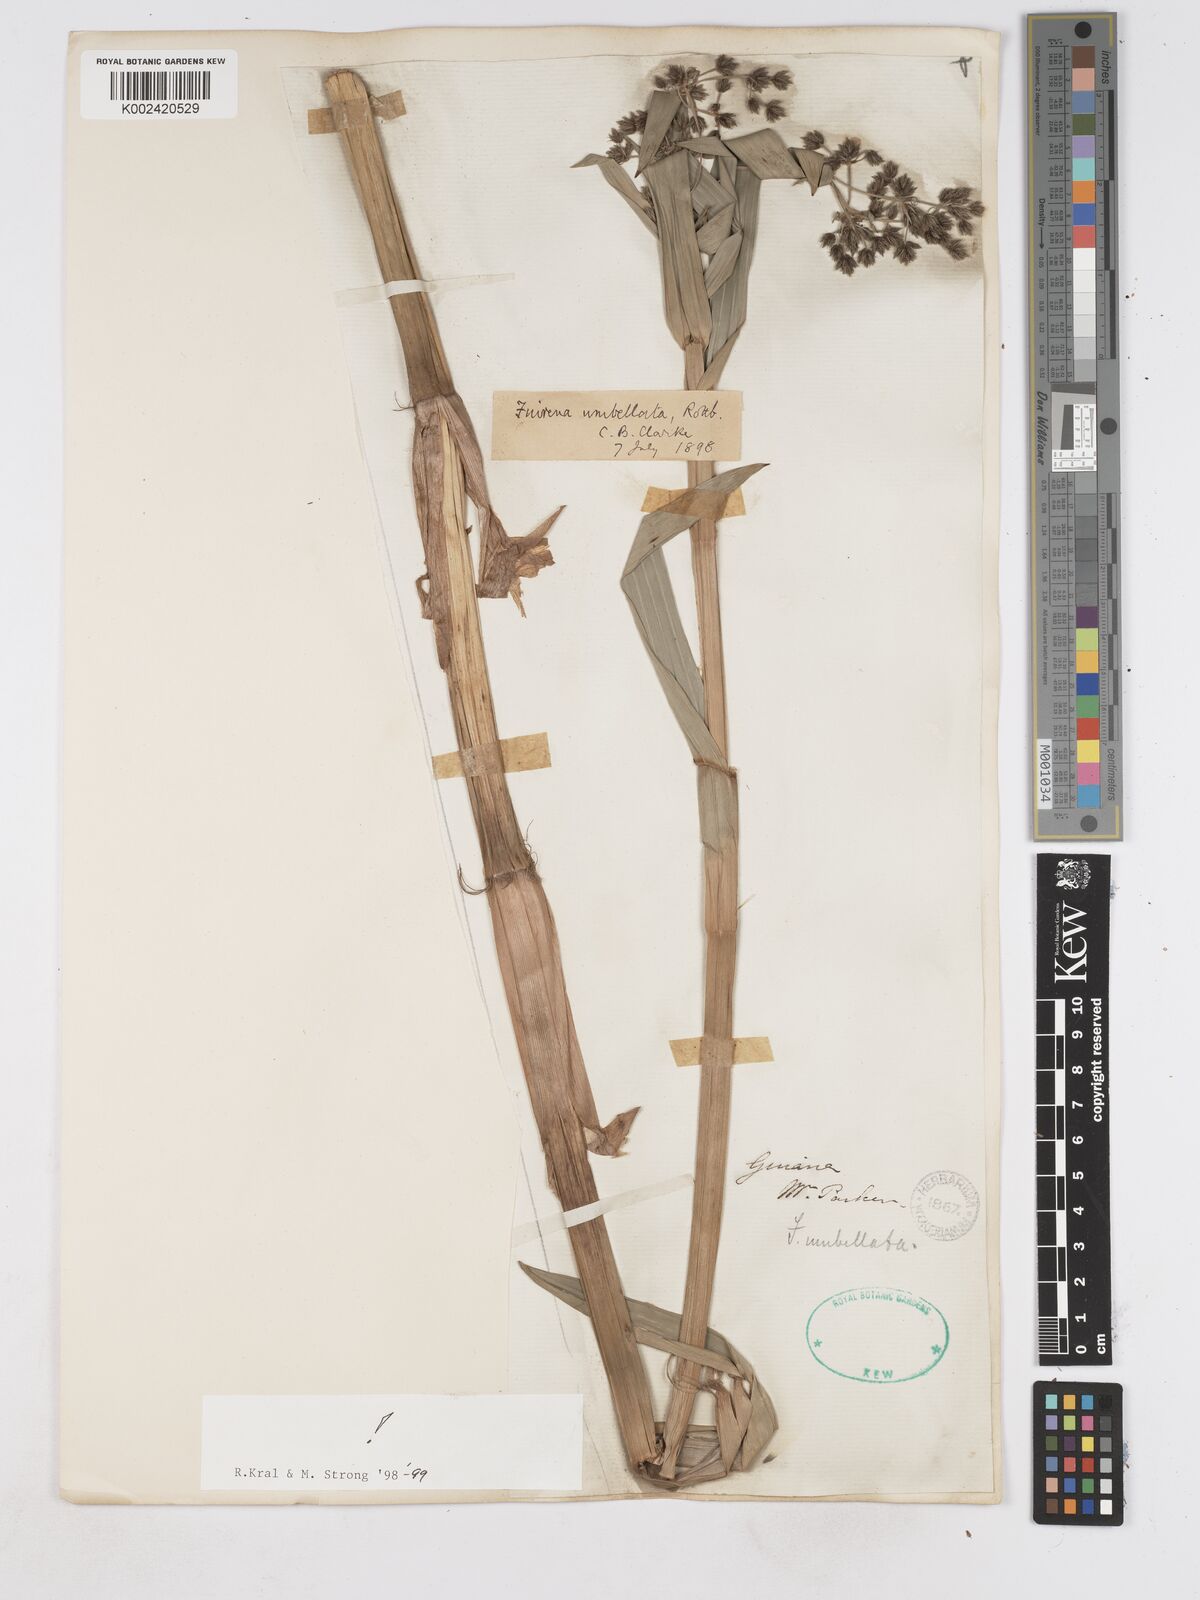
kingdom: Plantae
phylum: Tracheophyta
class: Liliopsida
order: Poales
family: Cyperaceae
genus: Fuirena
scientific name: Fuirena umbellata
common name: Yefen
